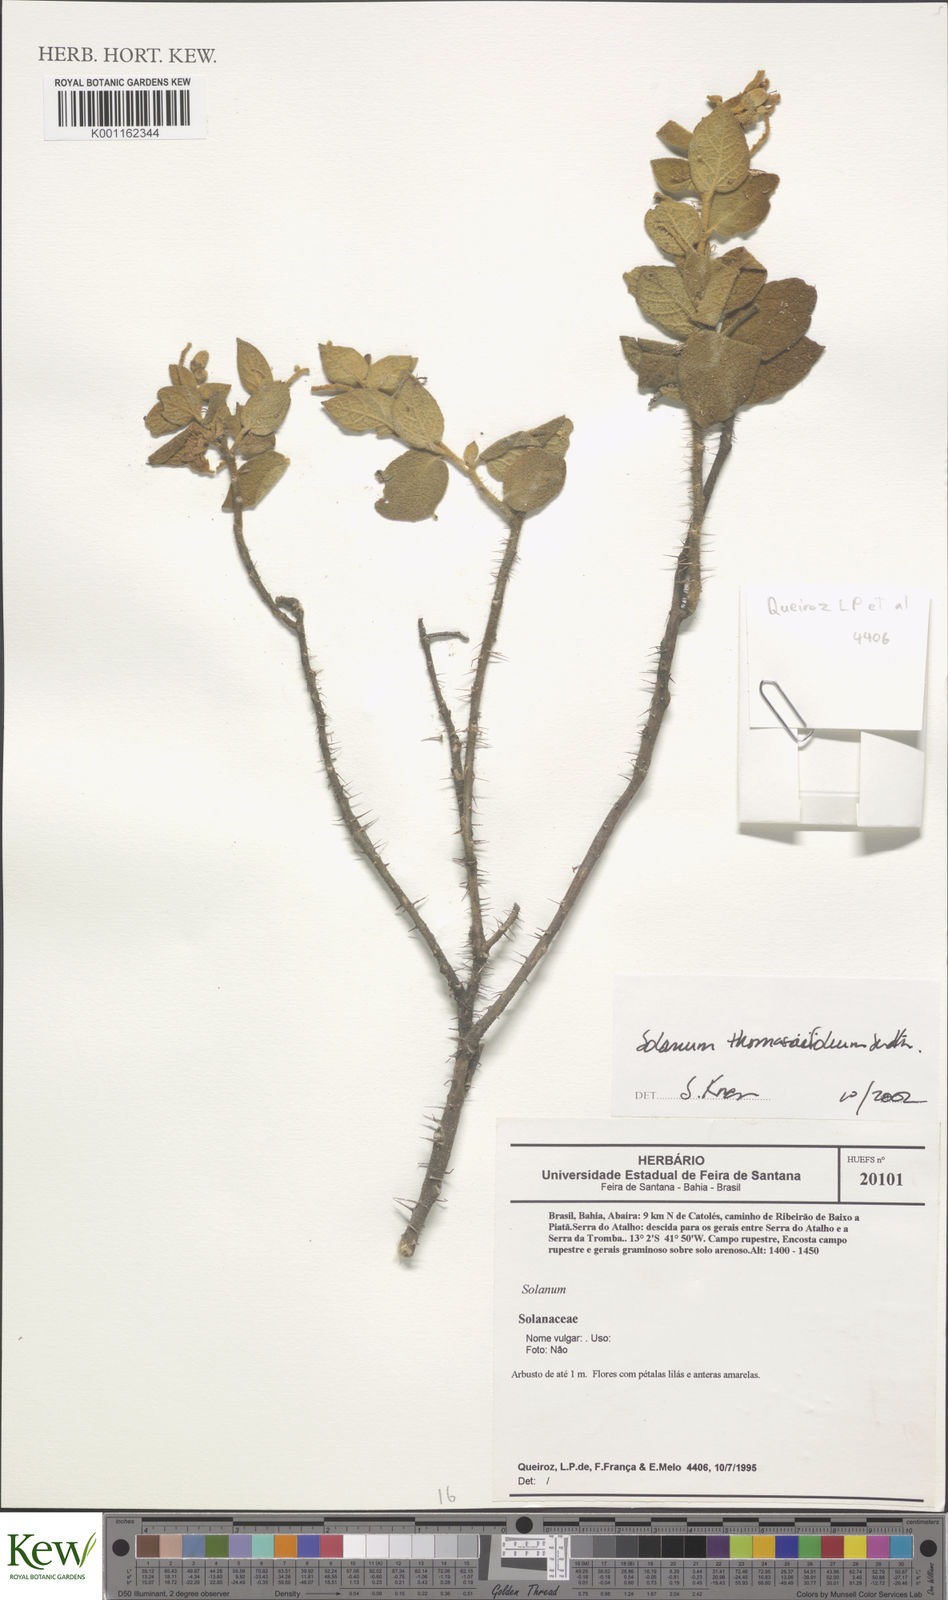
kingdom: Plantae
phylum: Tracheophyta
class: Magnoliopsida
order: Solanales
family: Solanaceae
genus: Solanum
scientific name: Solanum thomasiifolium
